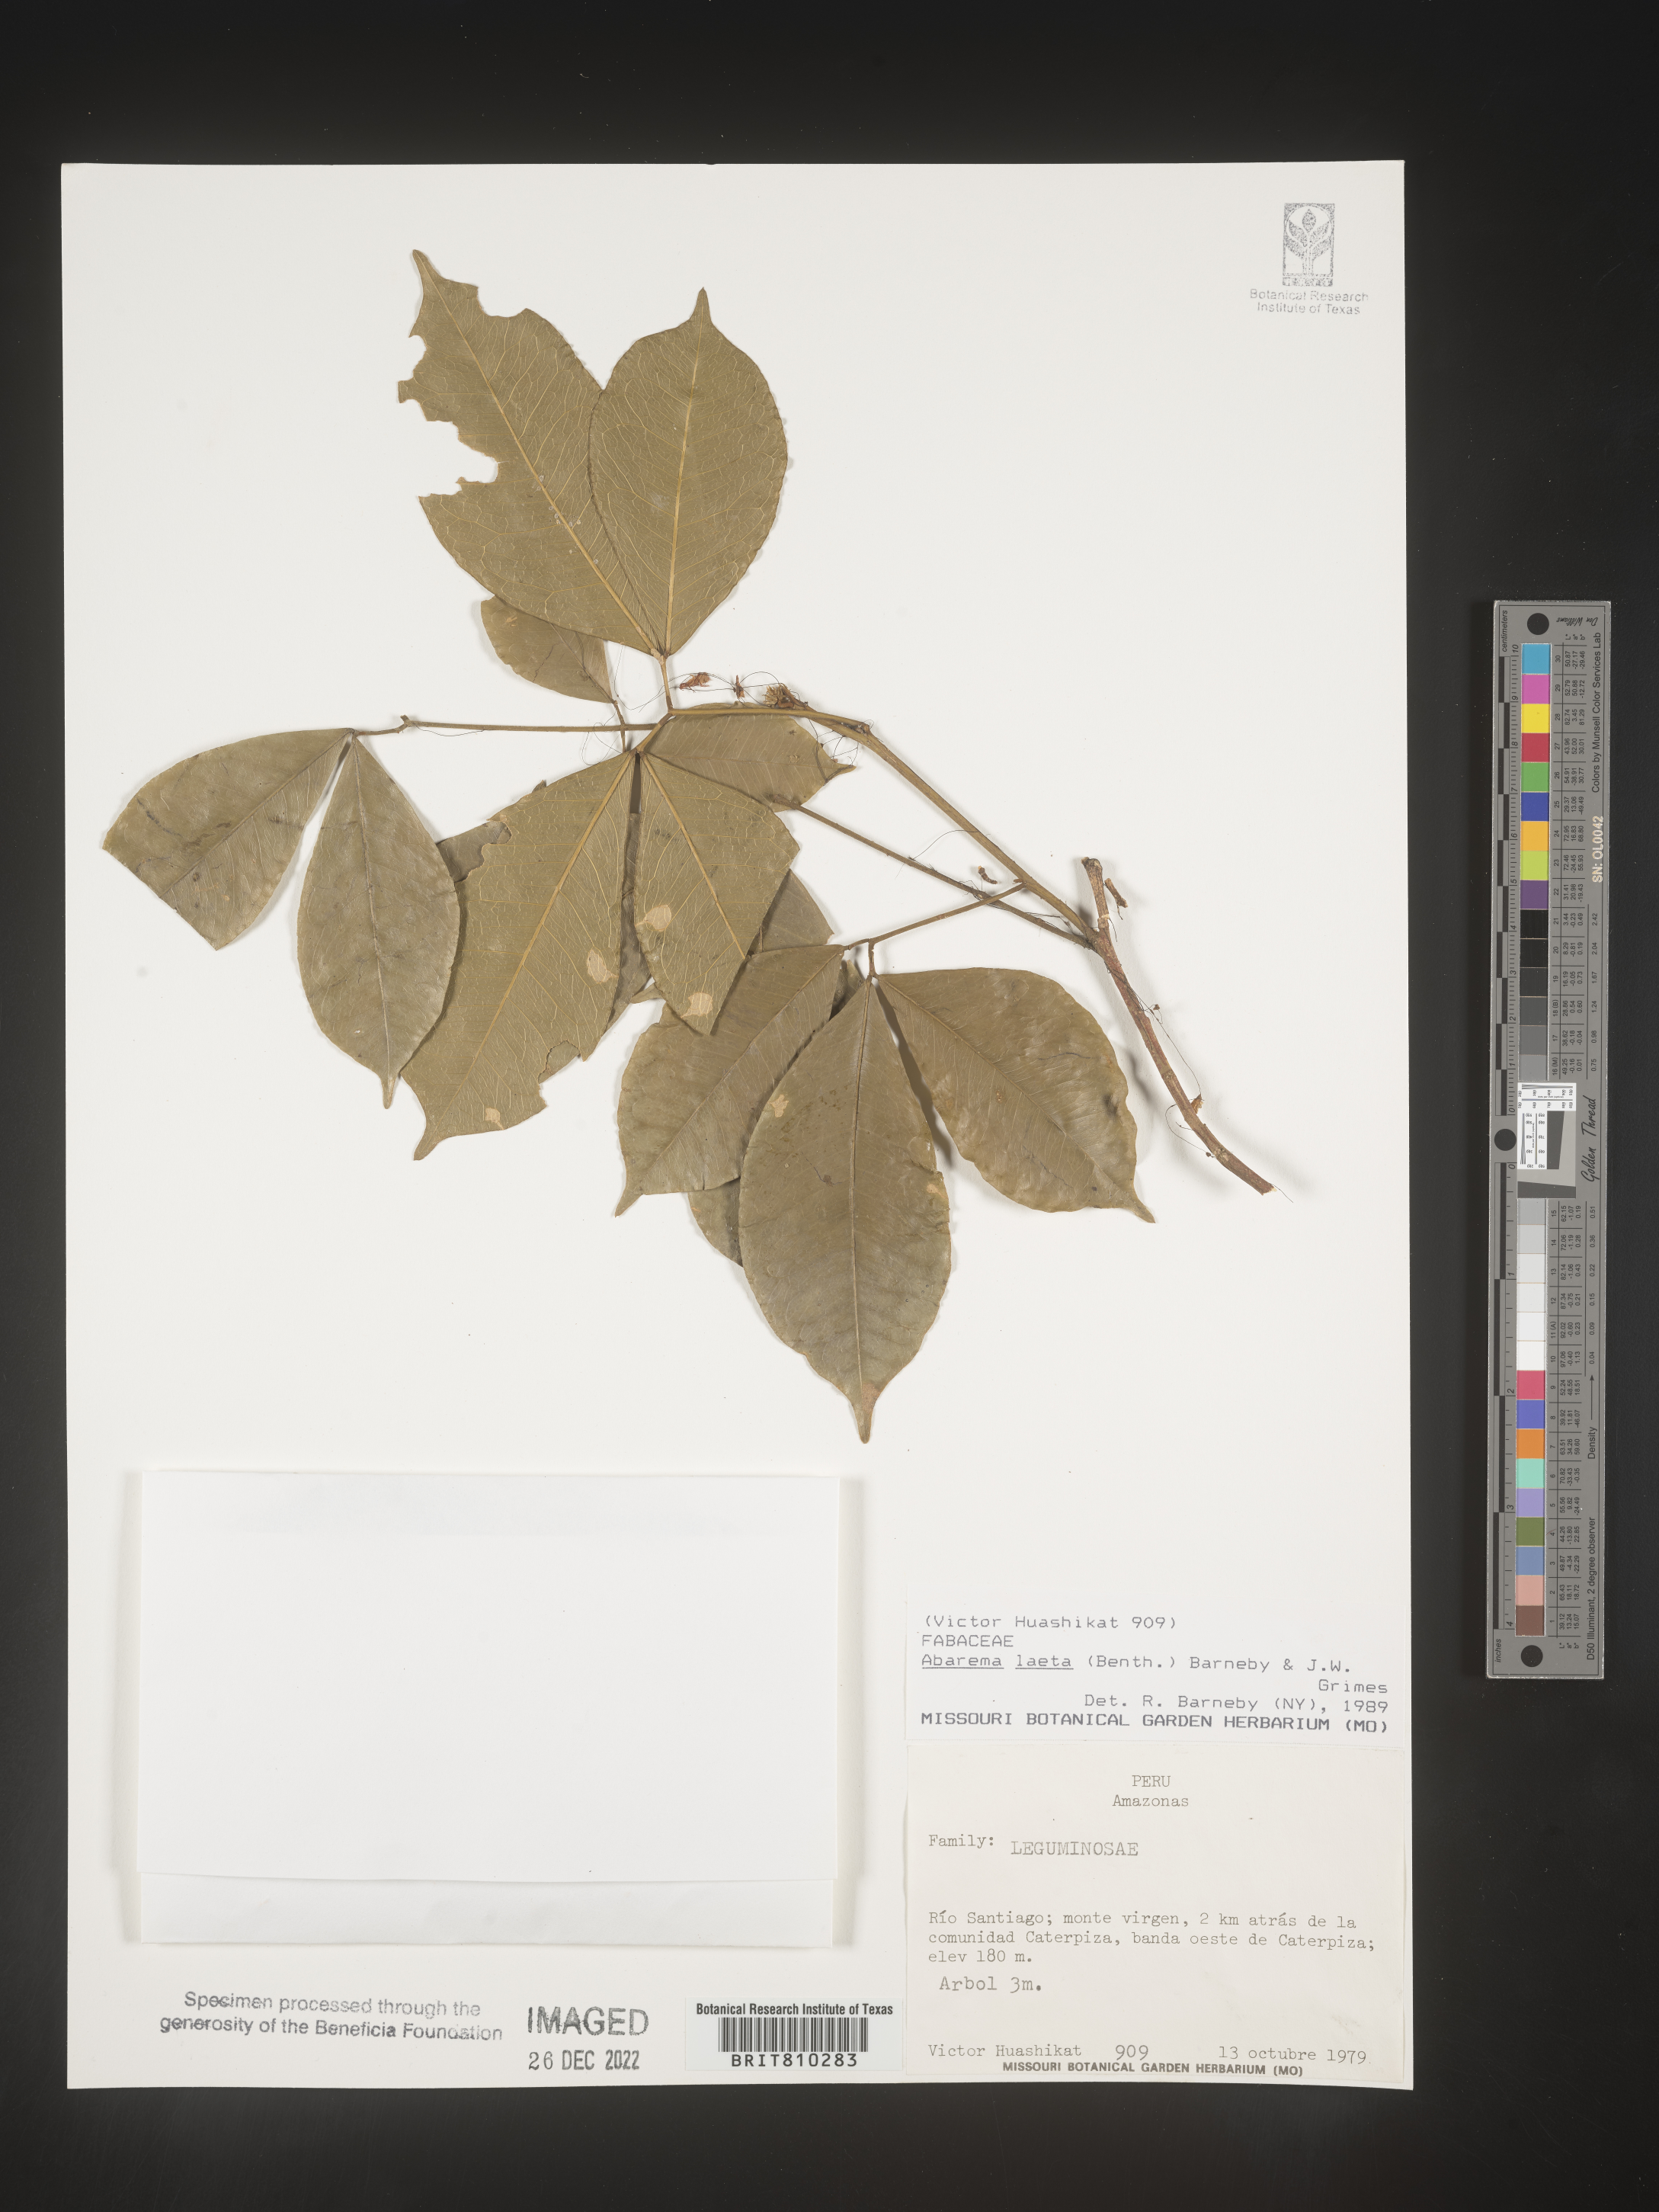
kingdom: Plantae
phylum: Tracheophyta
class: Magnoliopsida
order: Fabales
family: Fabaceae
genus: Abarema
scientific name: Abarema
